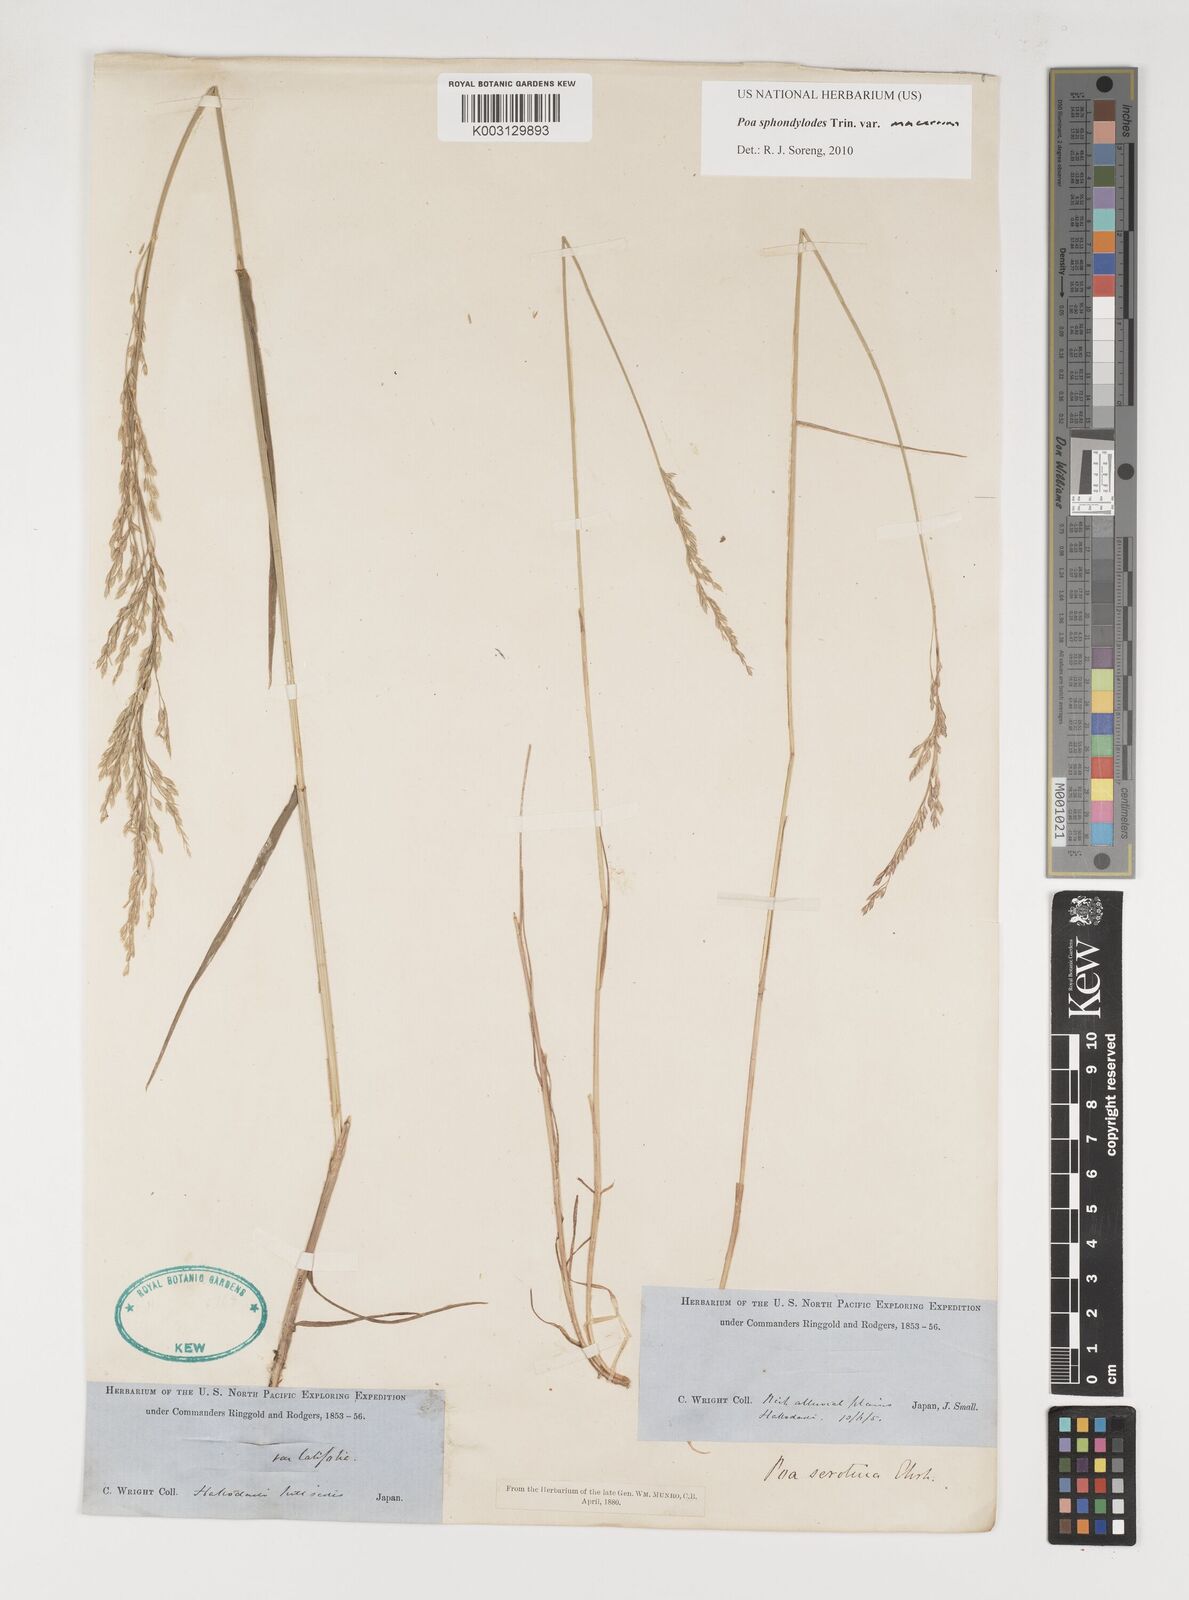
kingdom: Plantae
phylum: Tracheophyta
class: Liliopsida
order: Poales
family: Poaceae
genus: Poa
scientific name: Poa sphondylodes
